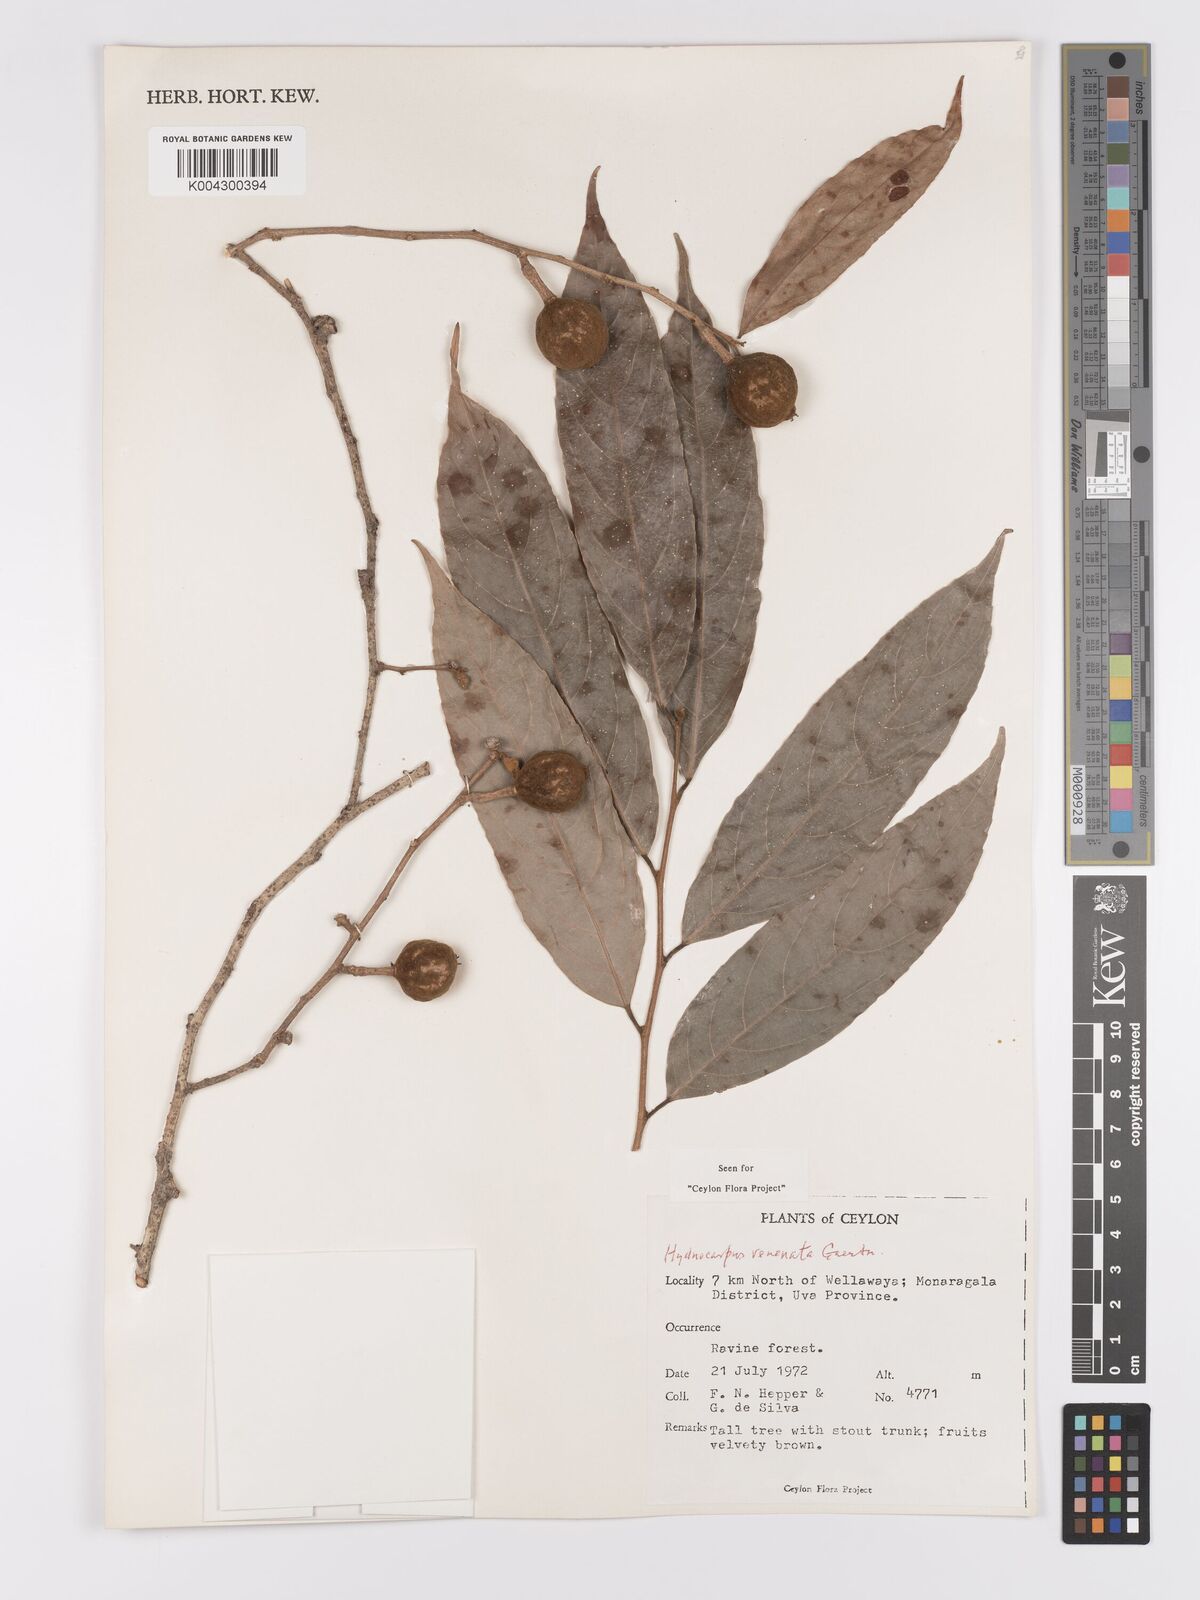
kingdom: Plantae
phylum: Tracheophyta
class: Magnoliopsida
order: Malpighiales
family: Achariaceae
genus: Hydnocarpus
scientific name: Hydnocarpus venenatus
